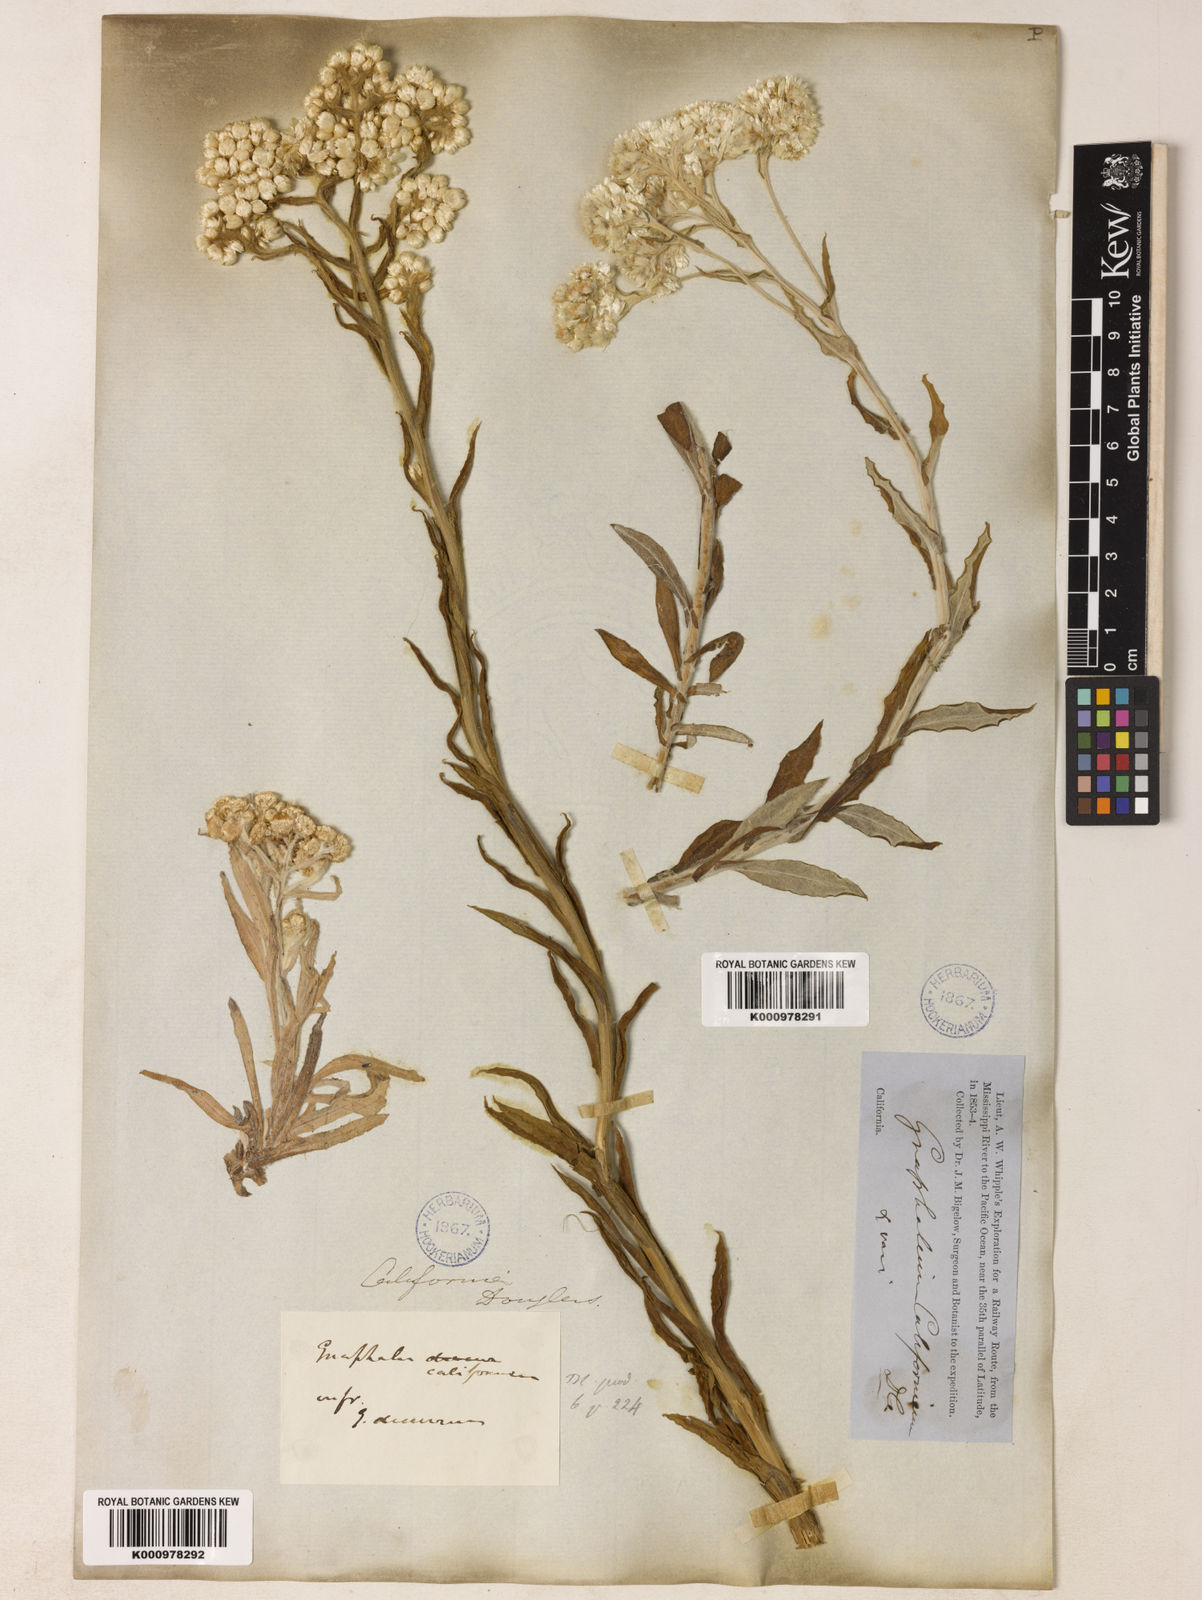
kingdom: Plantae
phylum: Tracheophyta
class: Magnoliopsida
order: Asterales
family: Asteraceae
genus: Pseudognaphalium
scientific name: Pseudognaphalium californicum
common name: California rabbit-tobacco
